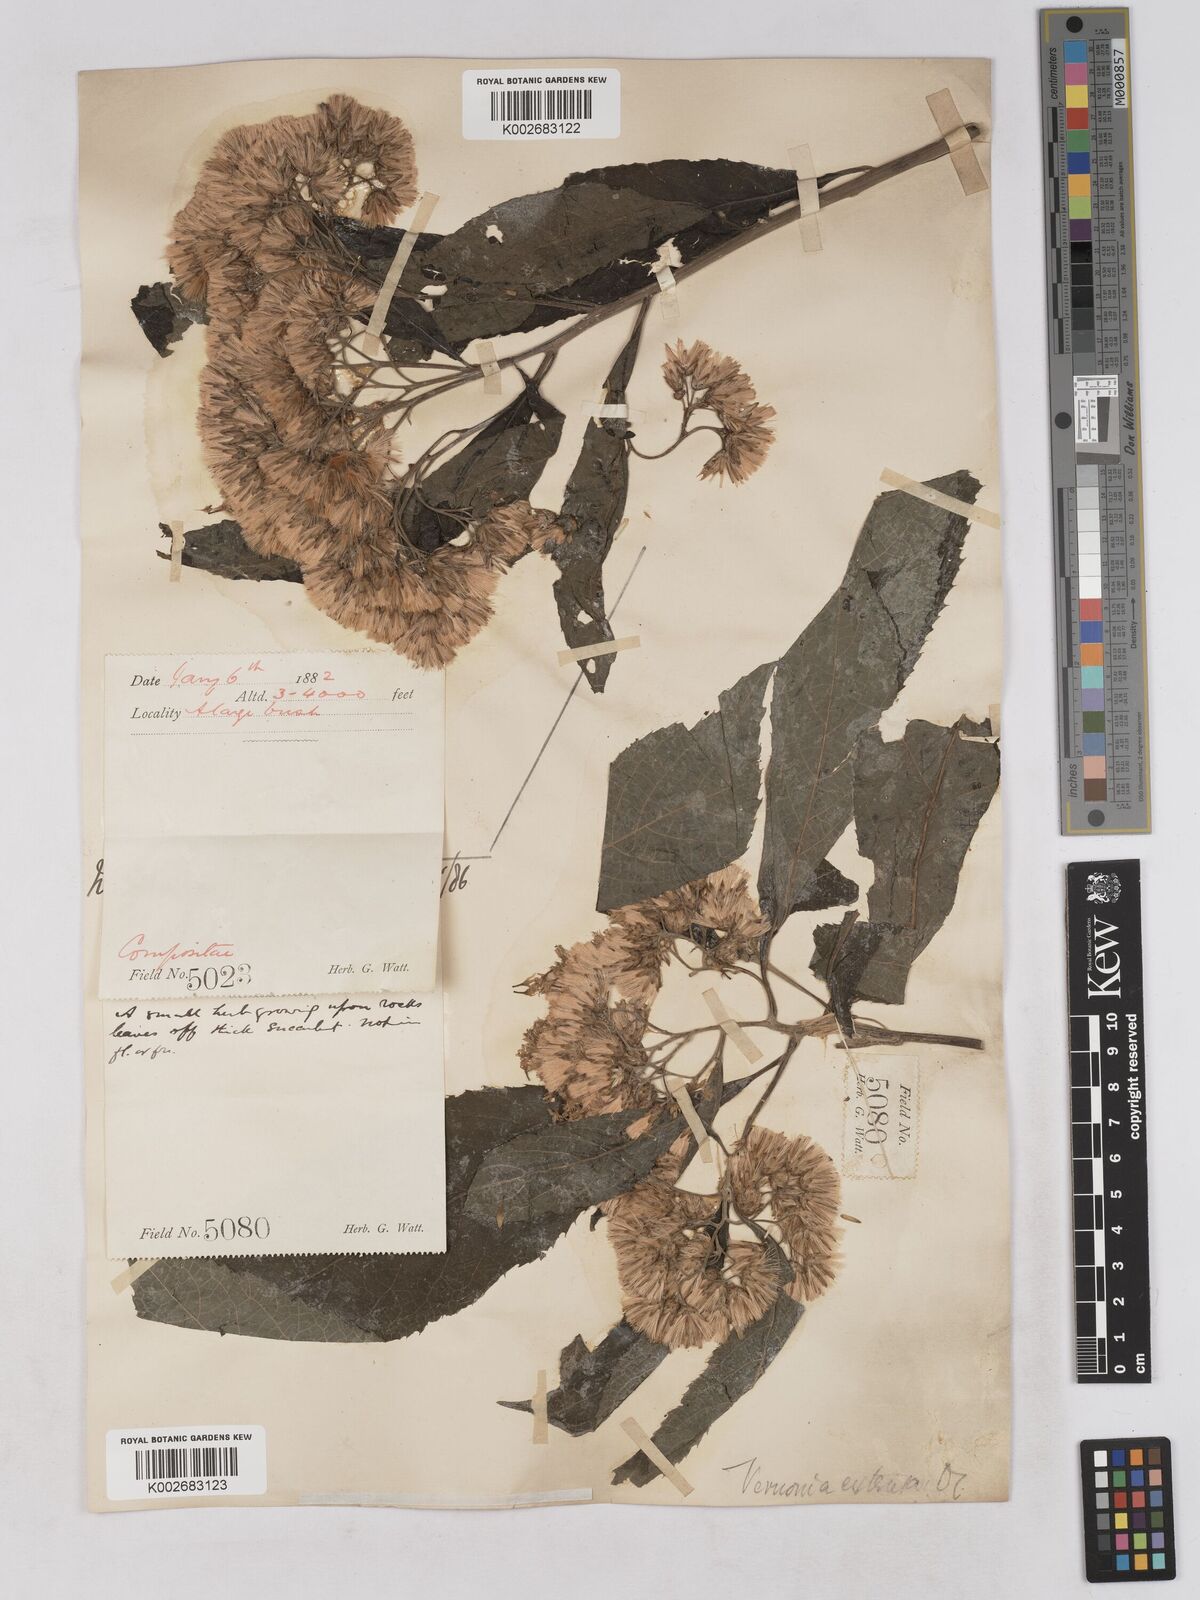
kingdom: Plantae
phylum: Tracheophyta
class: Magnoliopsida
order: Asterales
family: Asteraceae
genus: Gymnanthemum
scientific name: Gymnanthemum extensum
